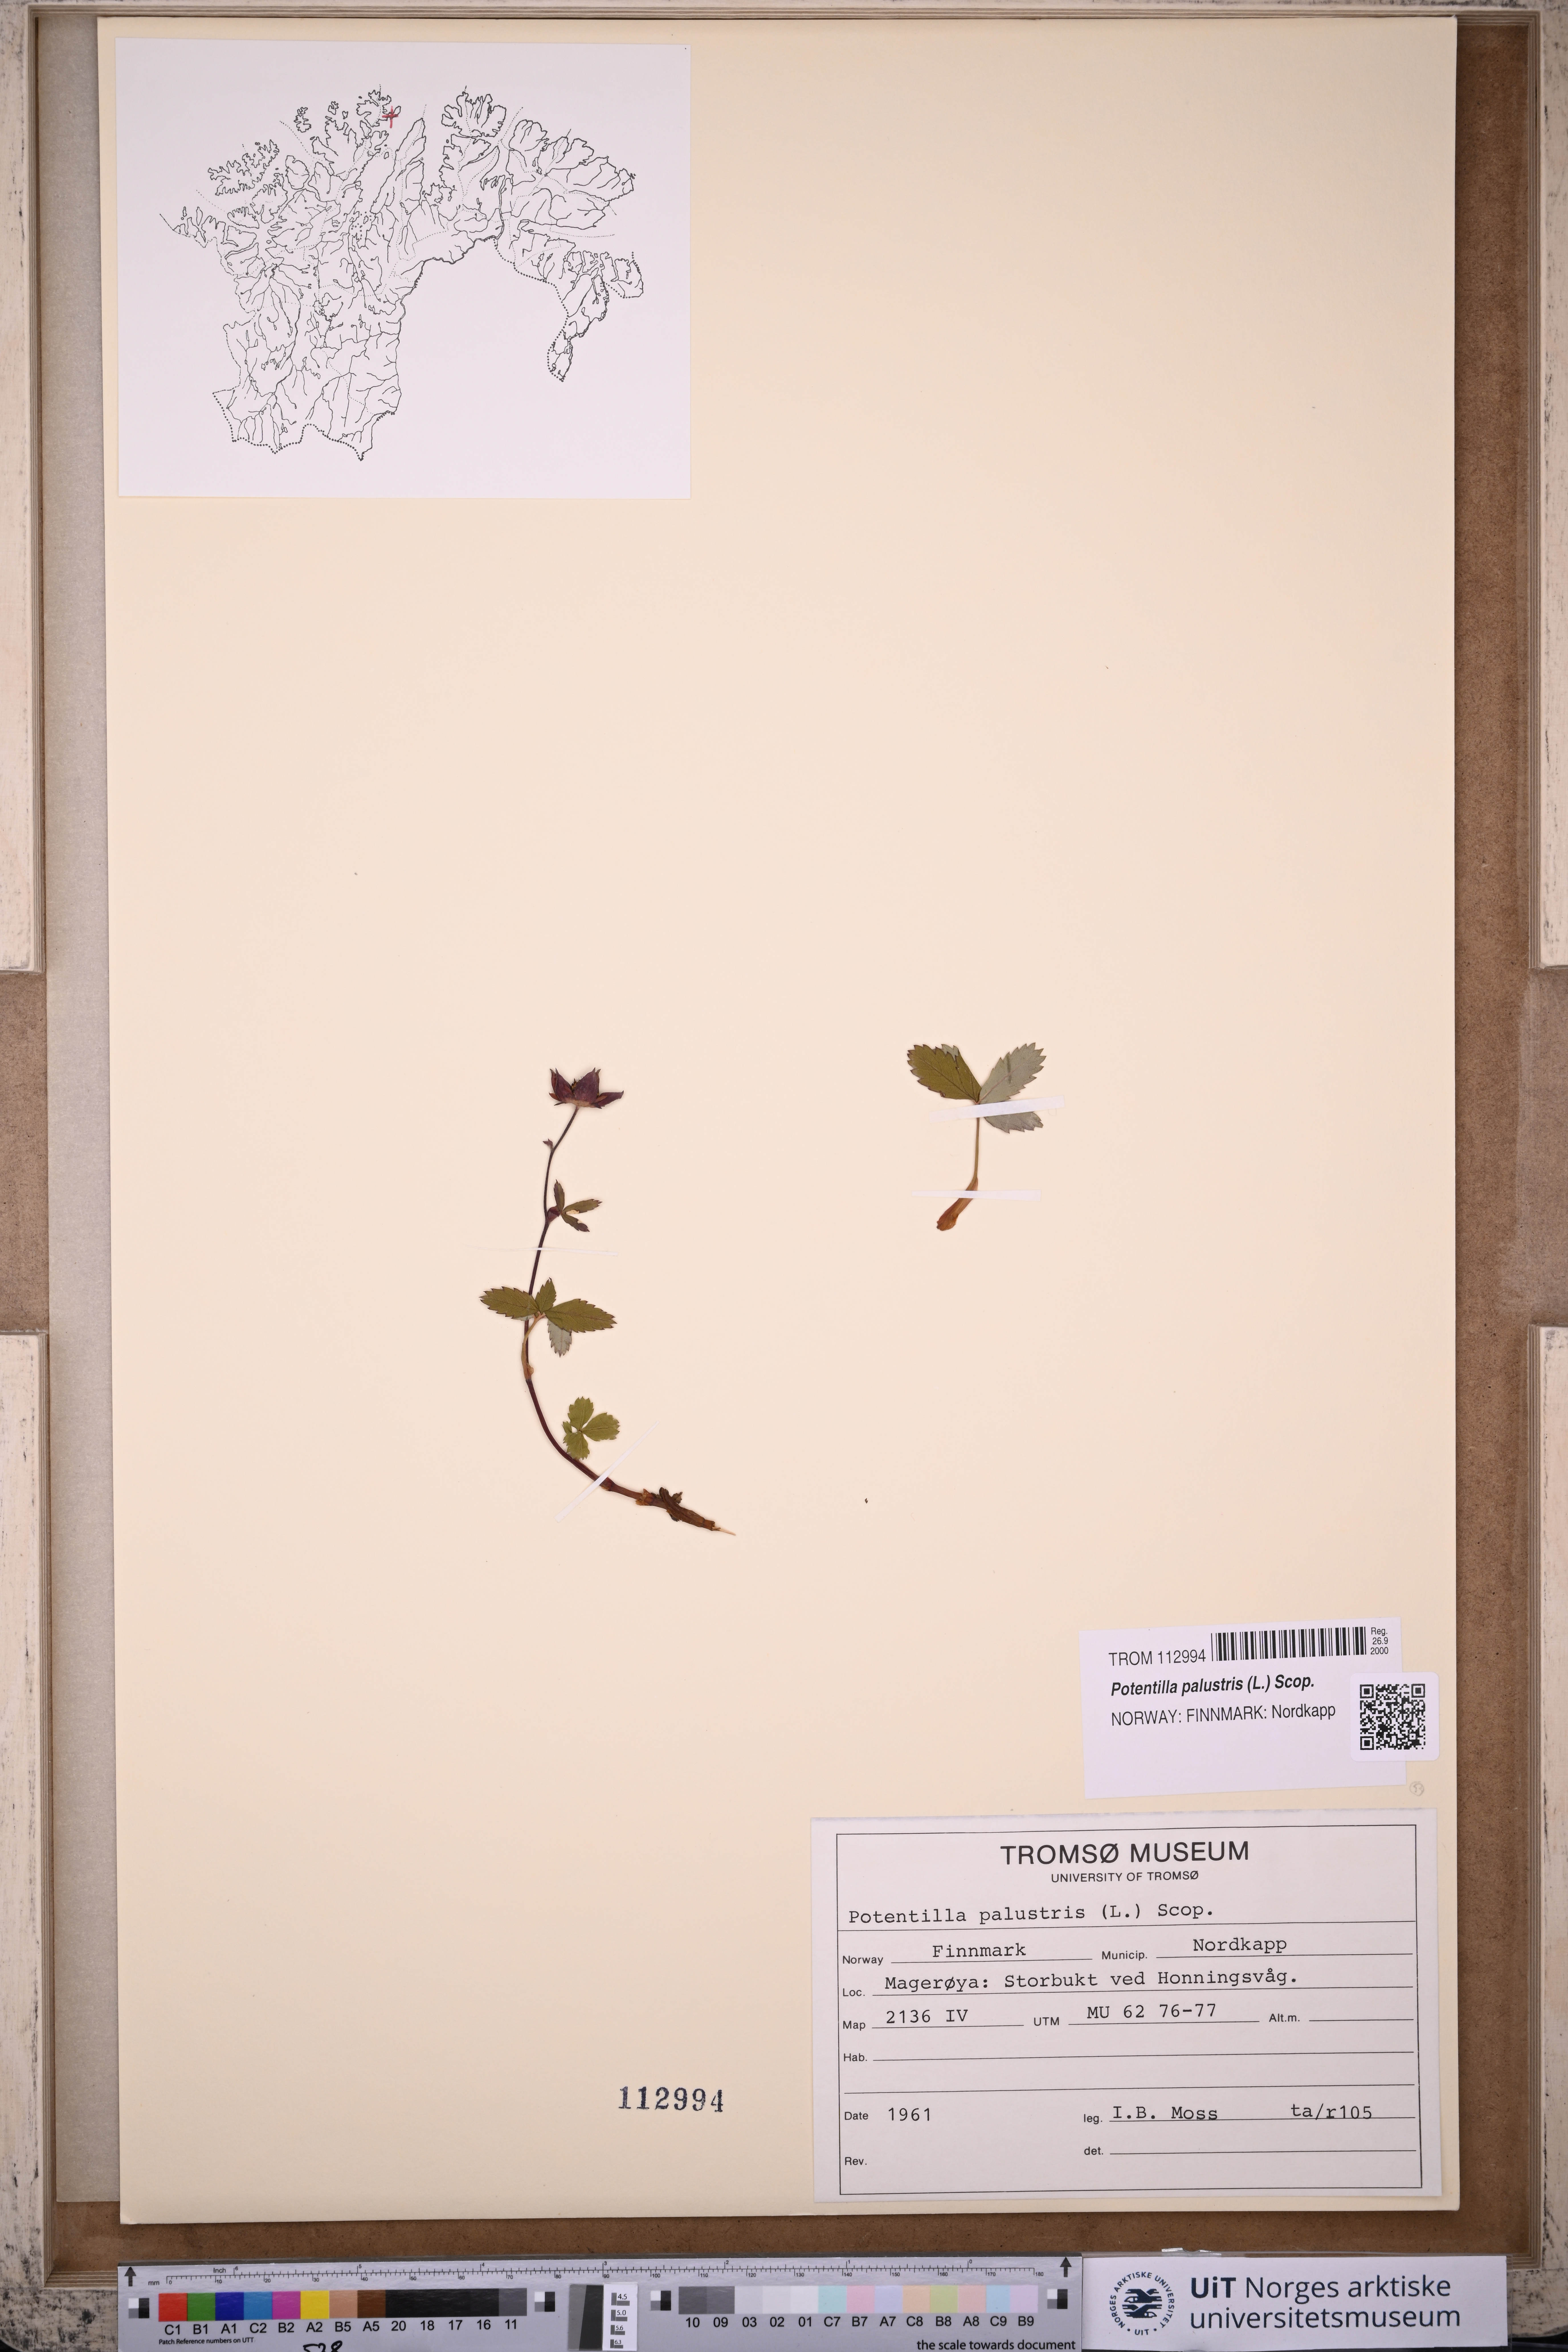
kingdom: Plantae
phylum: Tracheophyta
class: Magnoliopsida
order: Rosales
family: Rosaceae
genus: Comarum
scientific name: Comarum palustre
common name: Marsh cinquefoil
